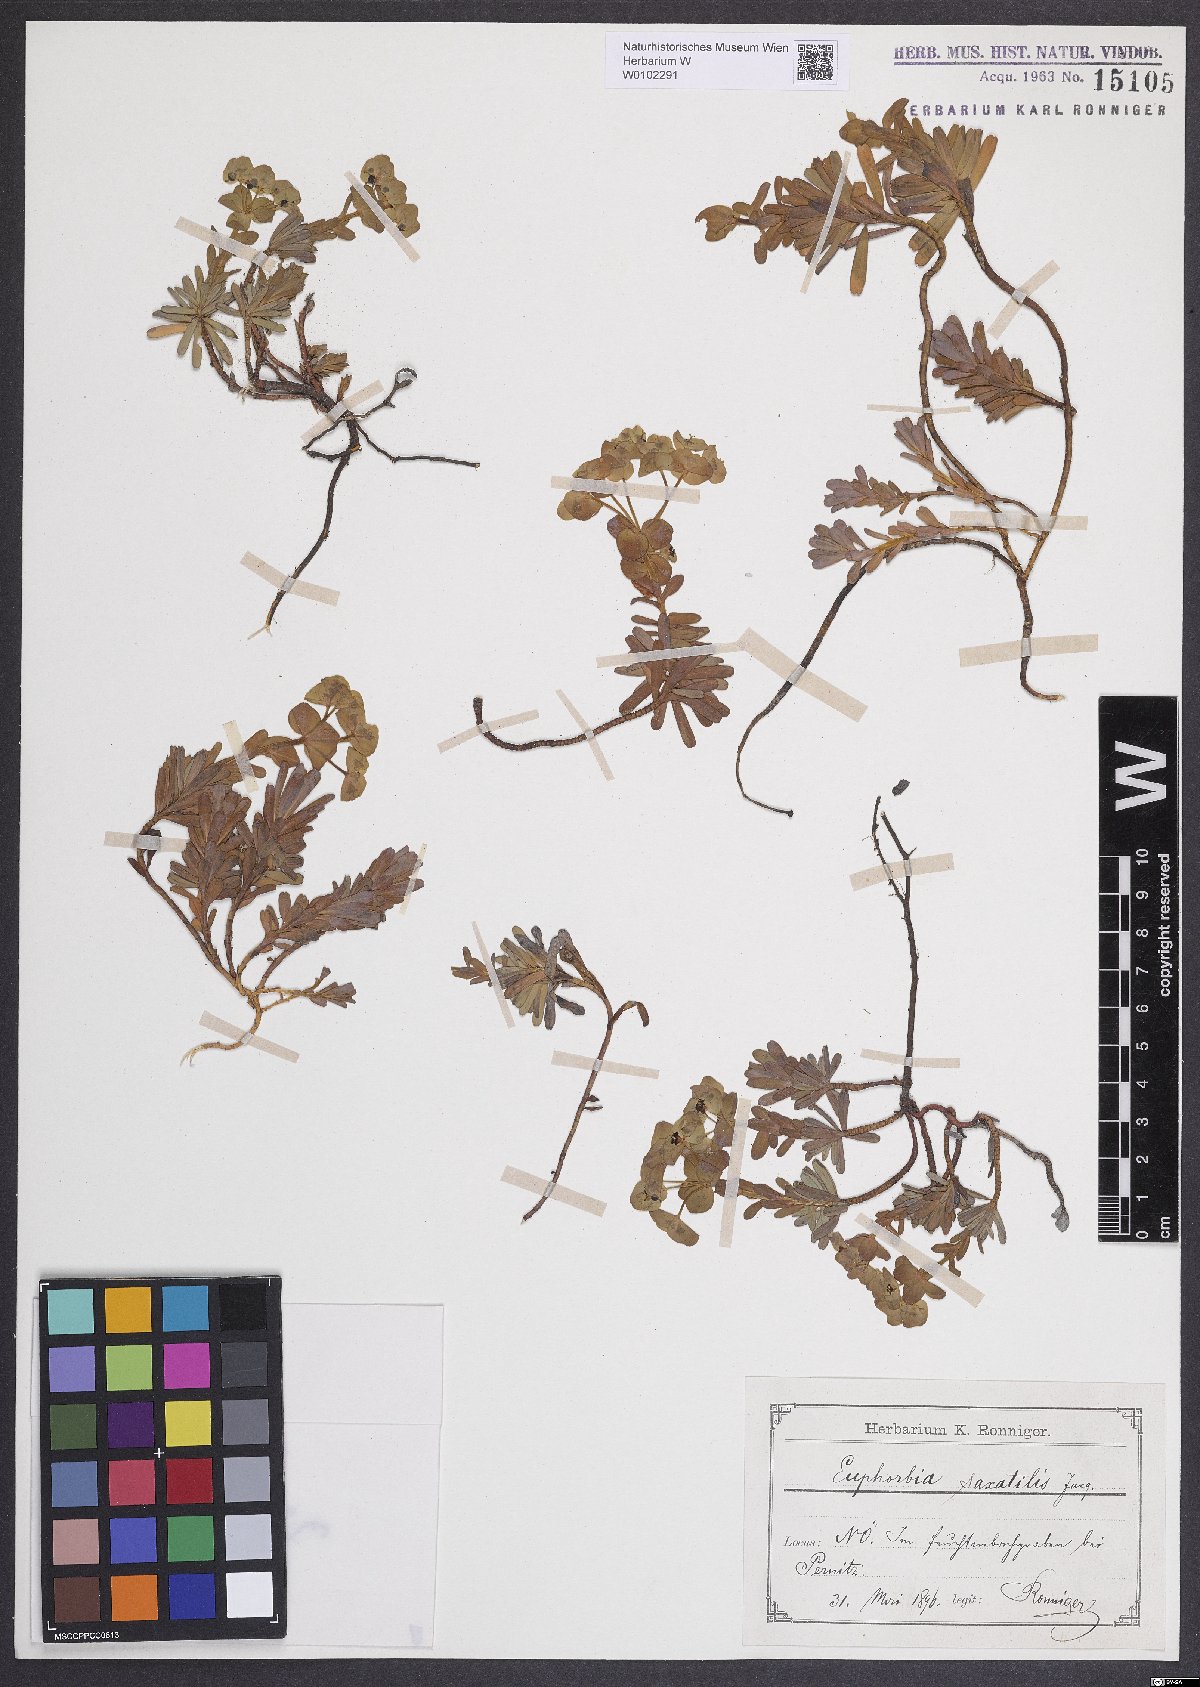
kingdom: Plantae
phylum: Tracheophyta
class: Magnoliopsida
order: Malpighiales
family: Euphorbiaceae
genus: Euphorbia
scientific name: Euphorbia saxatilis
